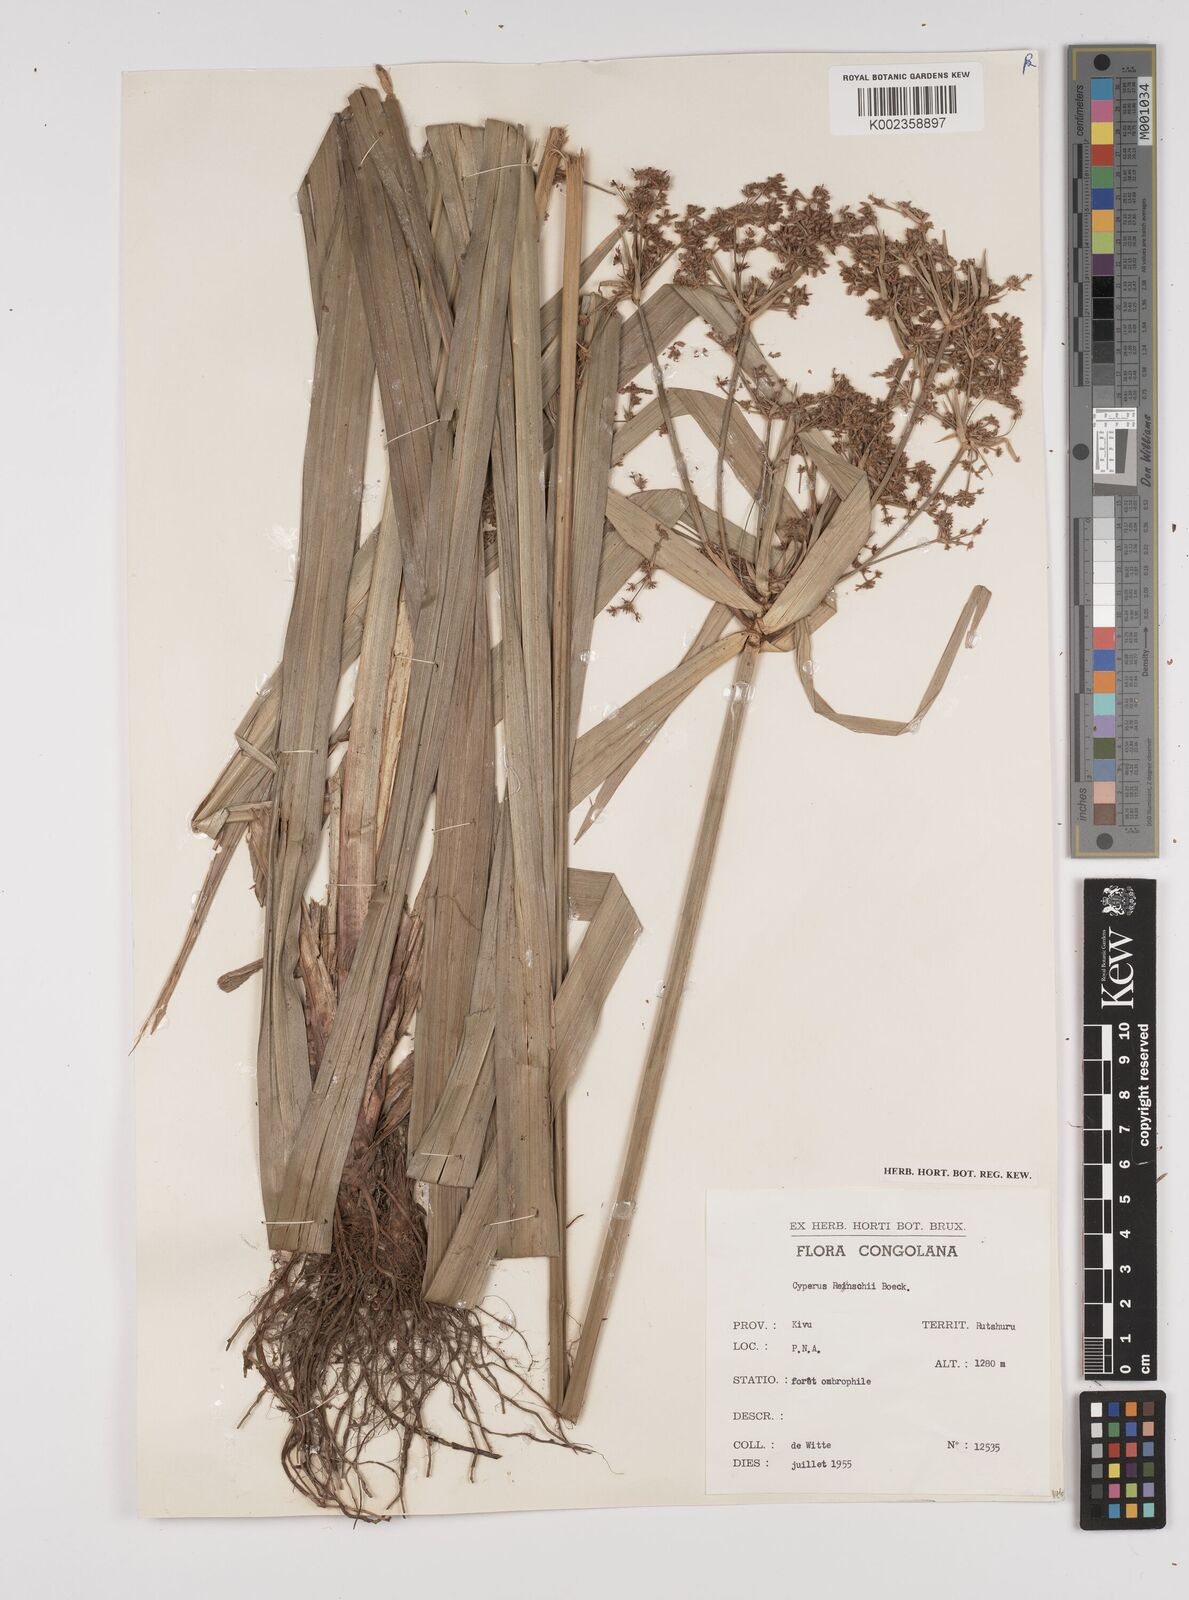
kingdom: Plantae
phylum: Tracheophyta
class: Liliopsida
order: Poales
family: Cyperaceae
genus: Cyperus
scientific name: Cyperus renschii
